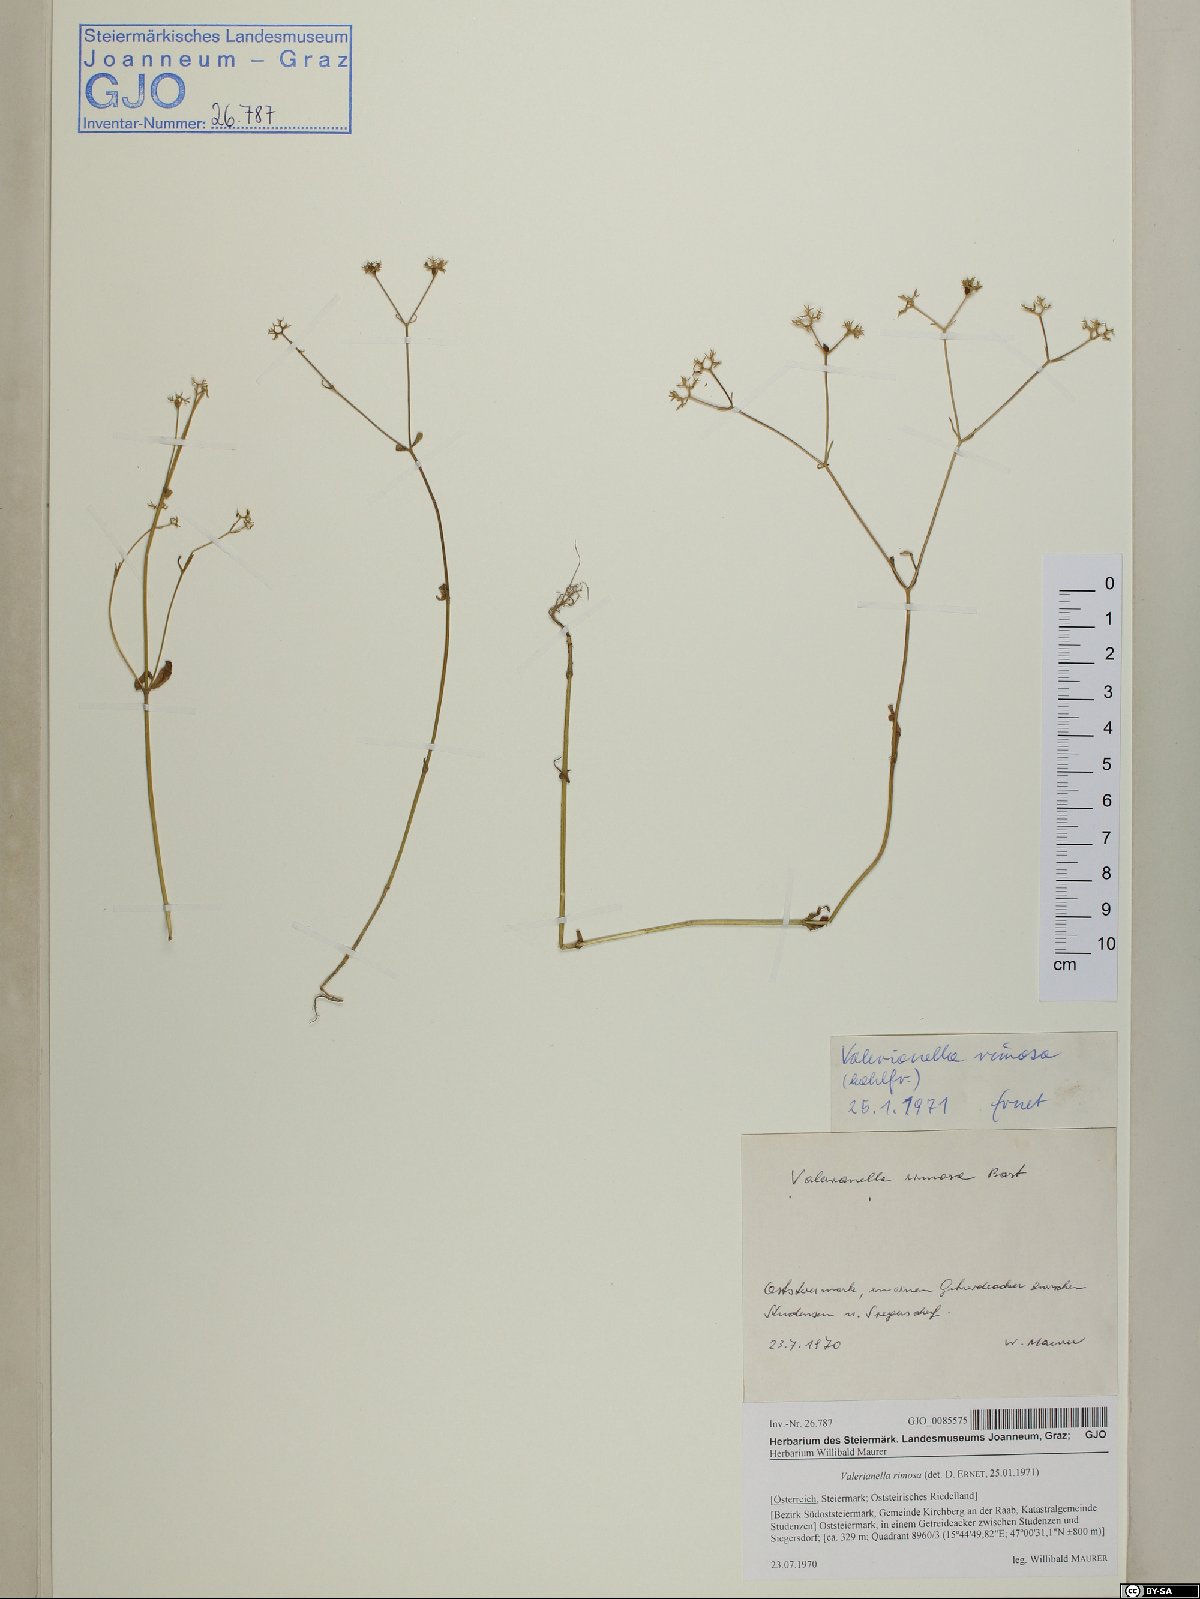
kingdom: Plantae
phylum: Tracheophyta
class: Magnoliopsida
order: Dipsacales
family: Caprifoliaceae
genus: Valerianella
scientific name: Valerianella rimosa
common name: Broad-fruited cornsalad
